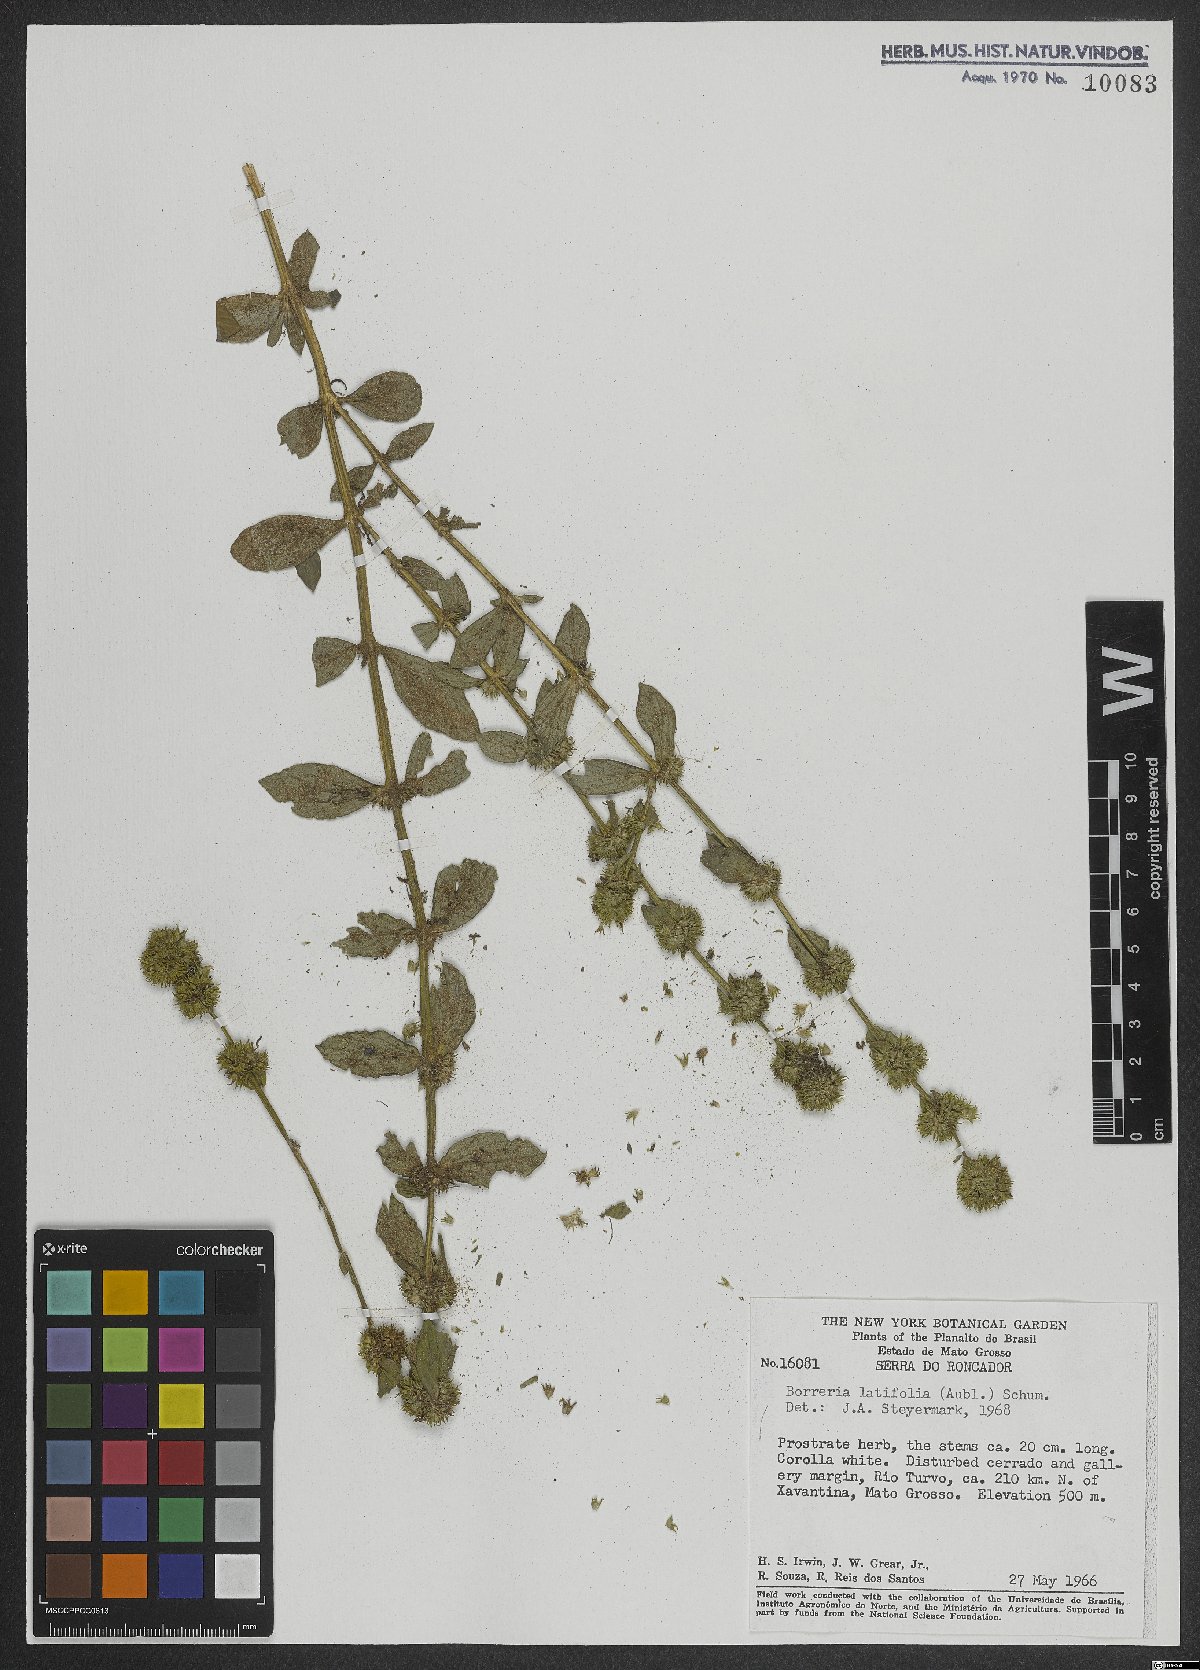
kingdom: Plantae
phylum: Tracheophyta
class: Magnoliopsida
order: Gentianales
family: Rubiaceae
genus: Spermacoce
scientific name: Spermacoce latifolia
